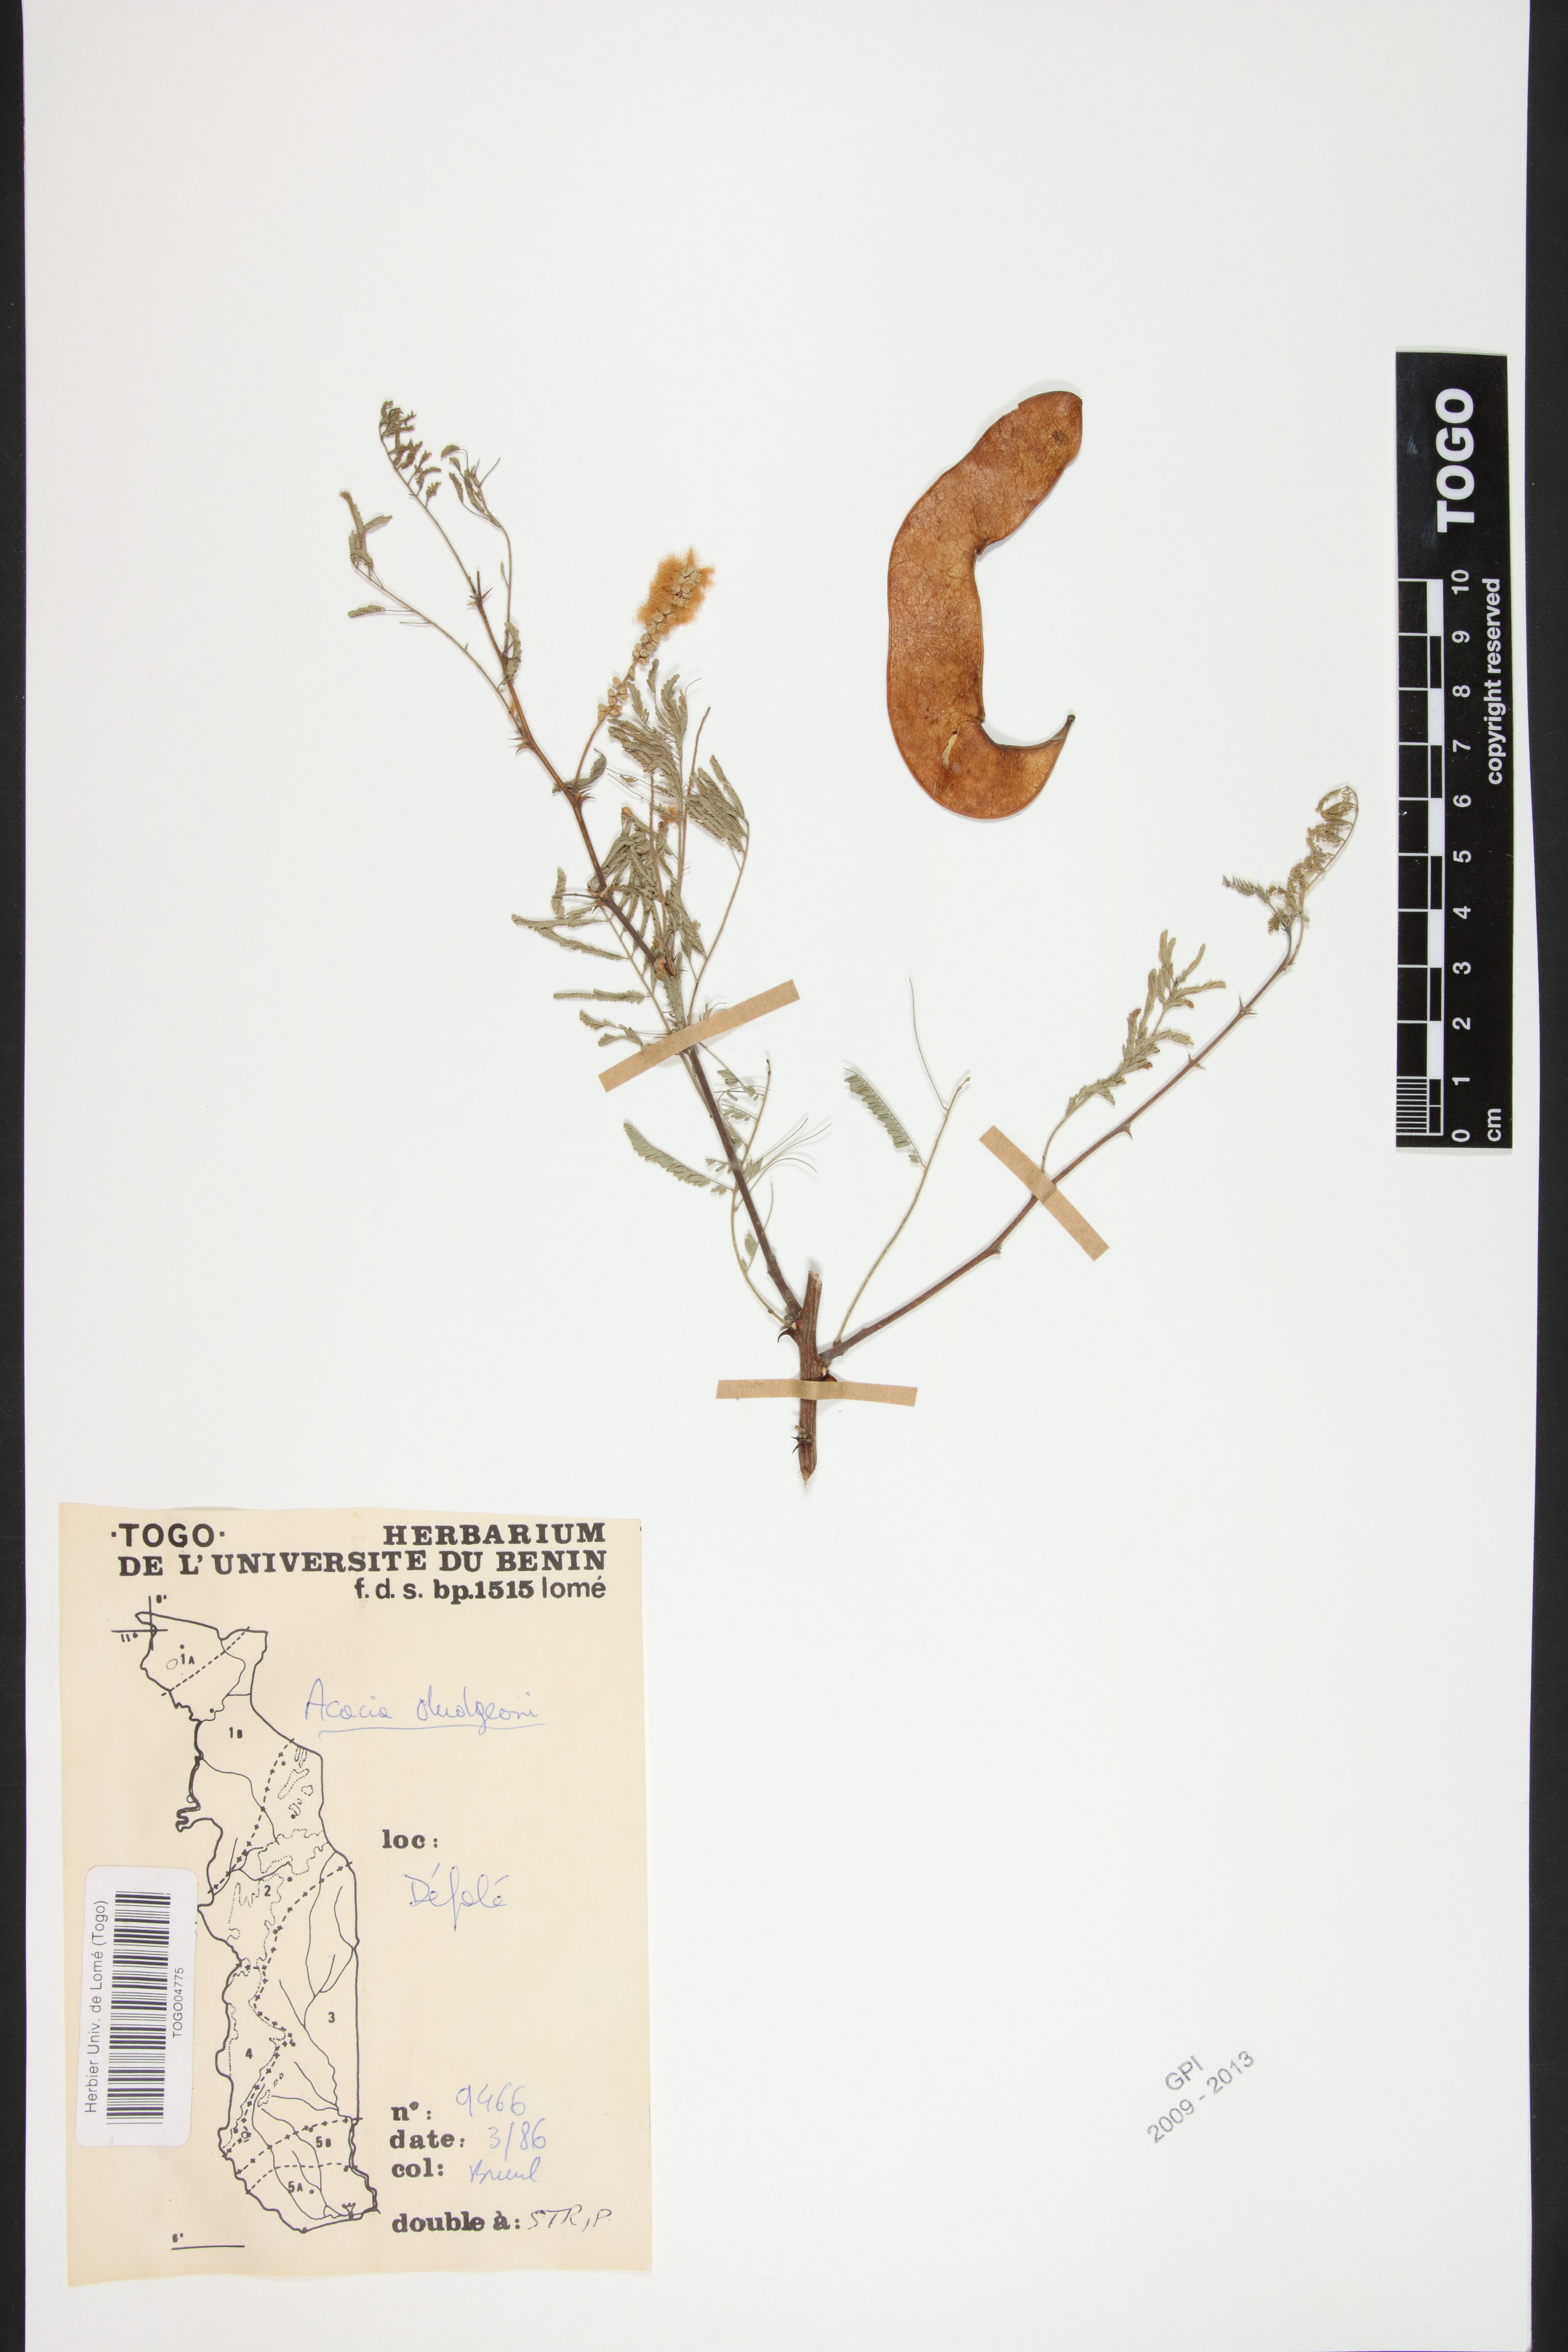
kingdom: Plantae
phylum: Tracheophyta
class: Magnoliopsida
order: Fabales
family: Fabaceae
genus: Senegalia
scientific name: Senegalia dudgeonii
